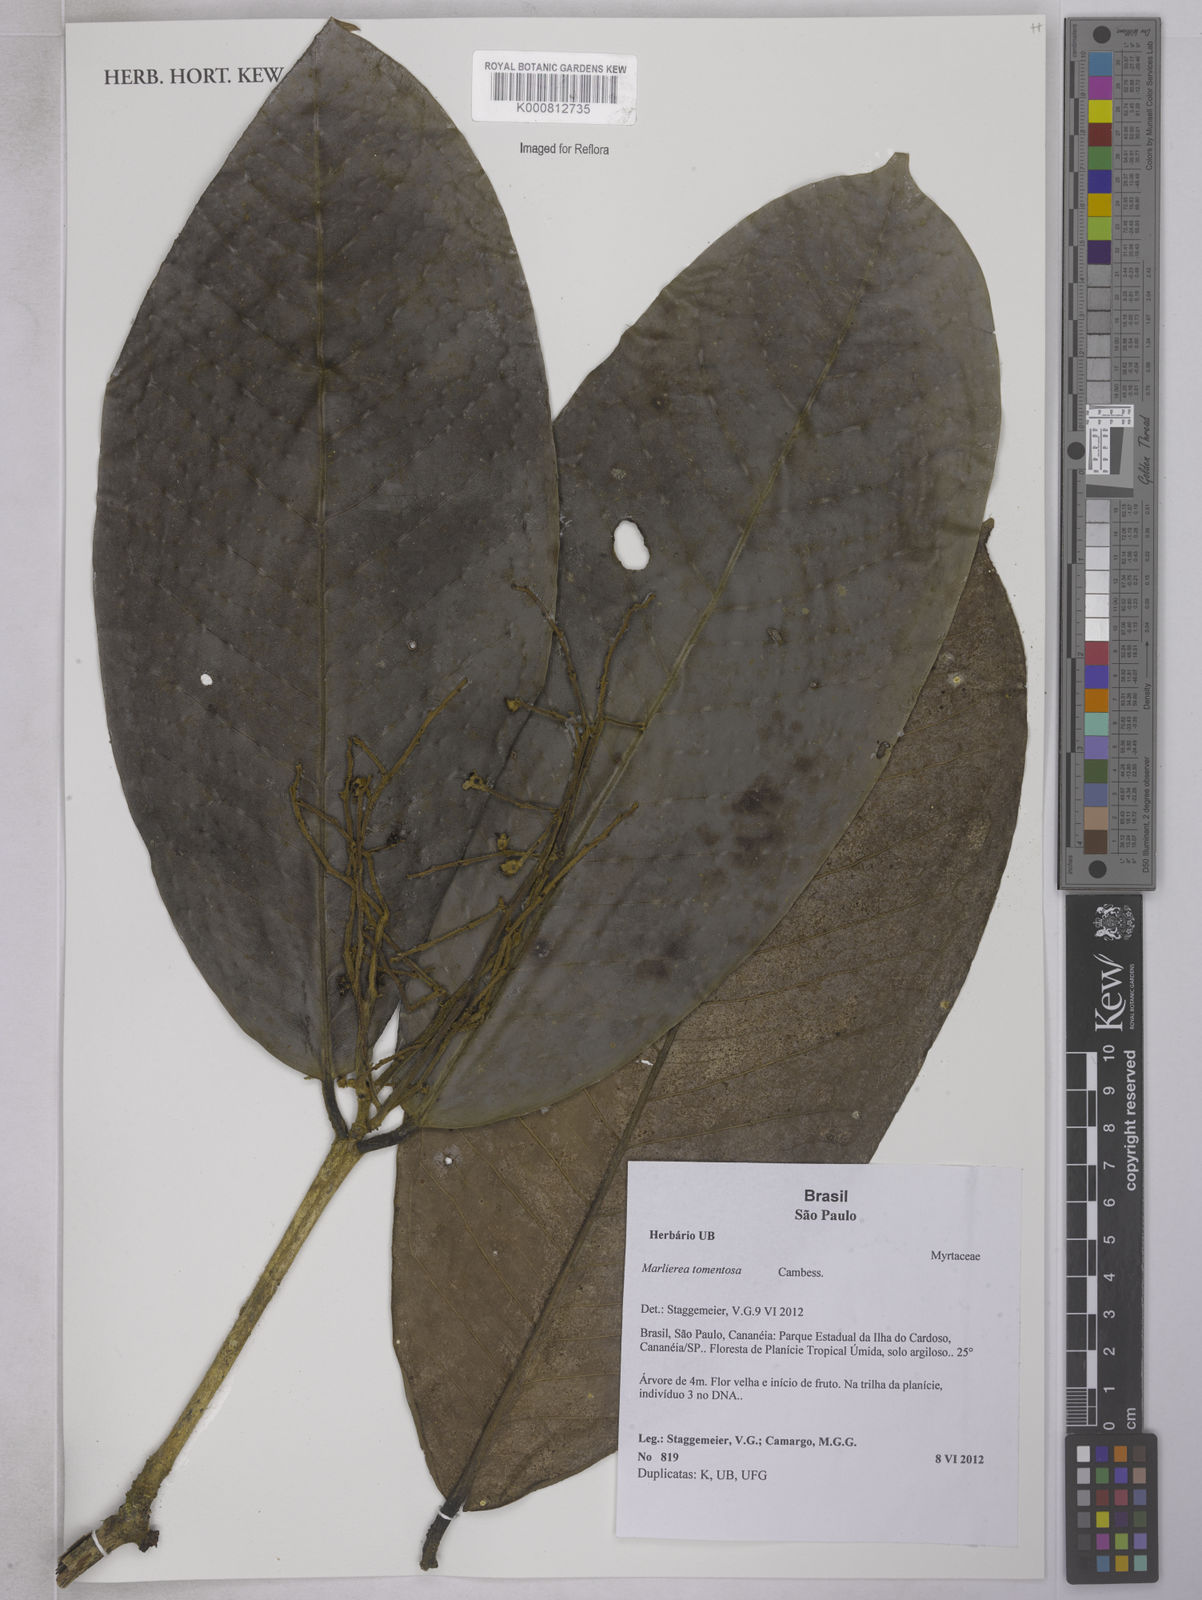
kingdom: Plantae
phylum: Tracheophyta
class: Magnoliopsida
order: Myrtales
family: Myrtaceae
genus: Myrcia
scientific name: Myrcia neotomentosa
